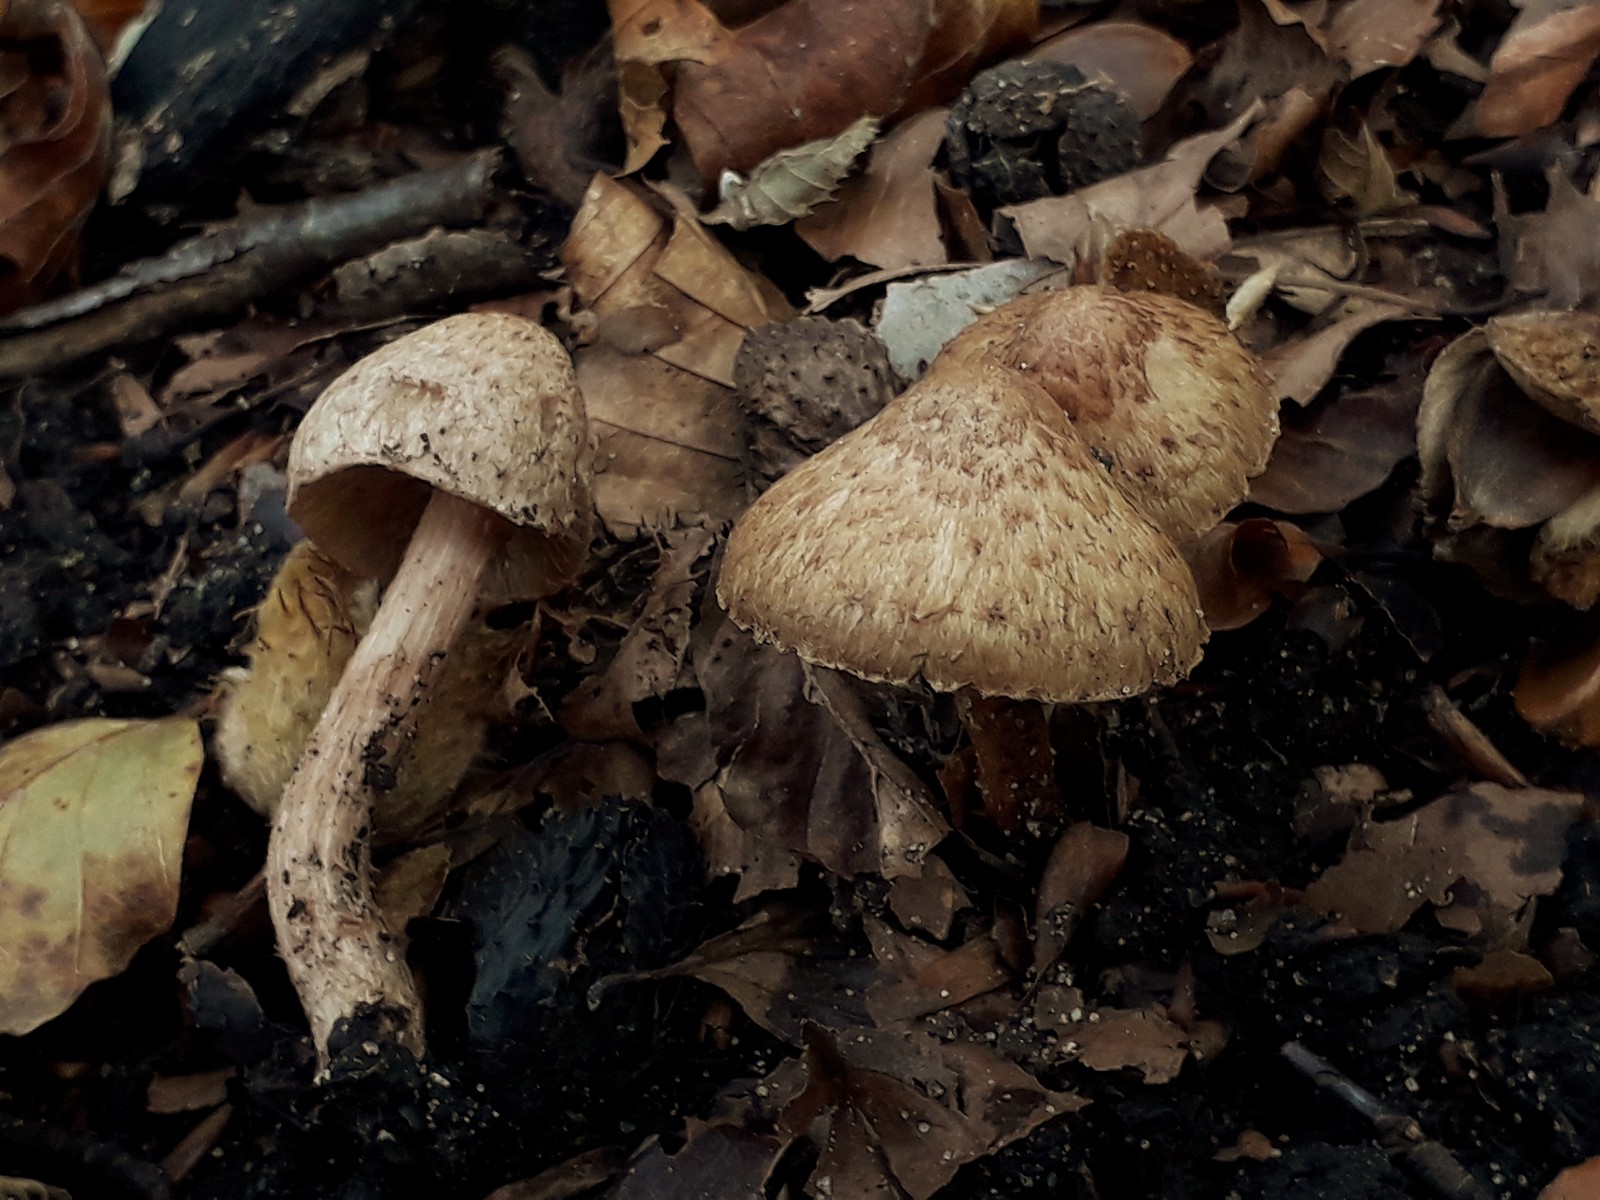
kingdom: Fungi
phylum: Basidiomycota
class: Agaricomycetes
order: Agaricales
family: Inocybaceae
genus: Inosperma
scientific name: Inosperma bongardii
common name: Bongards trævlhat
